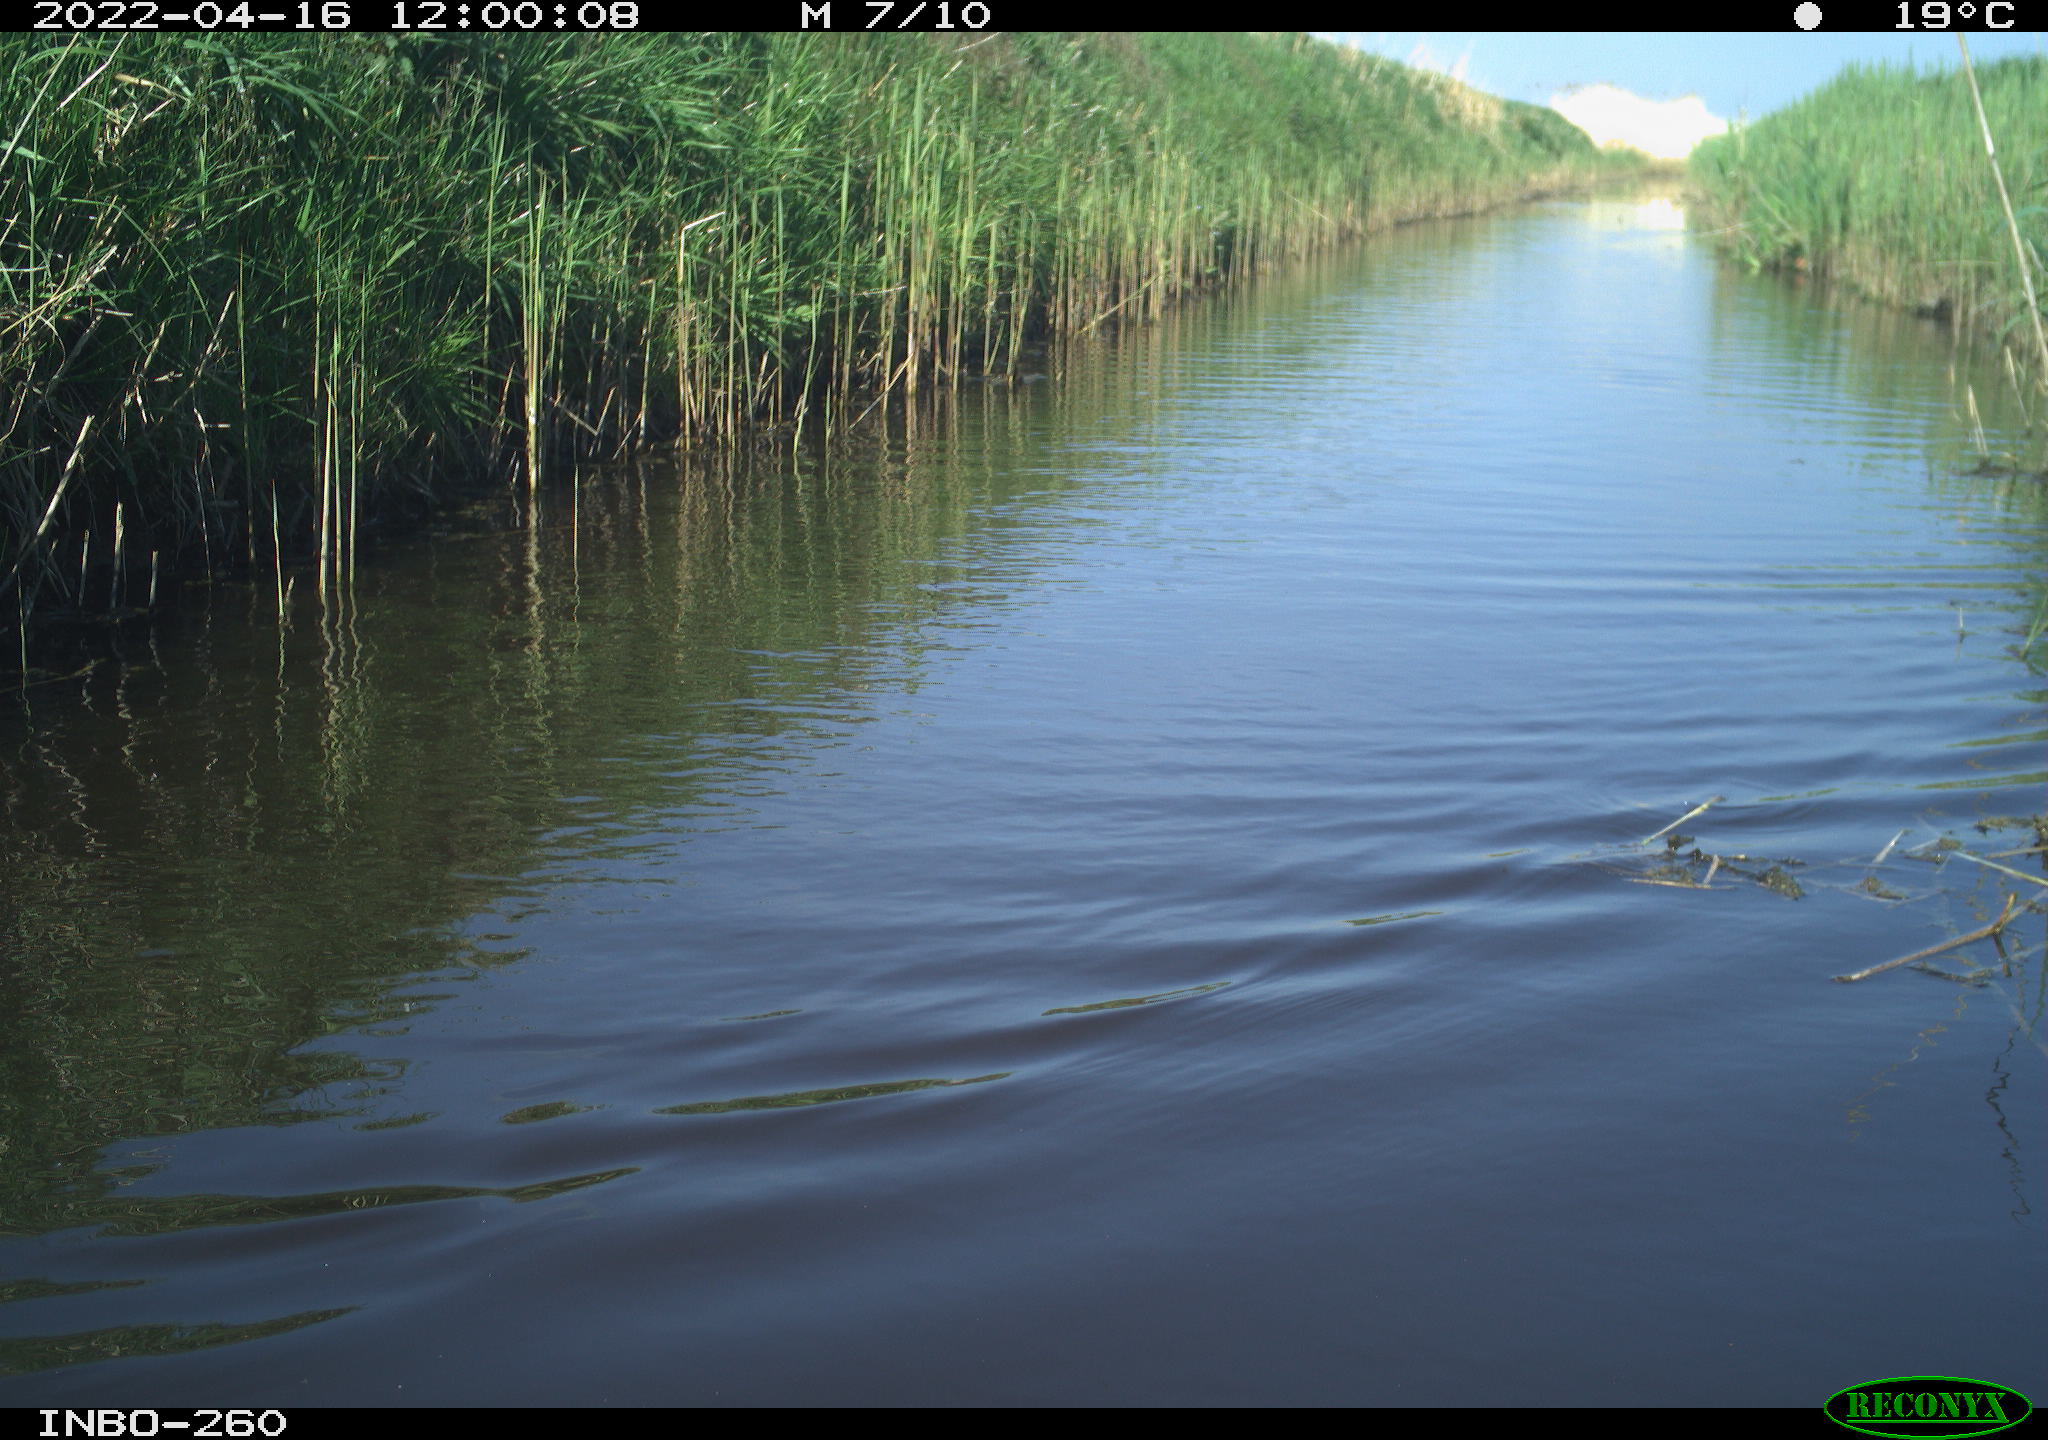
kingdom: Animalia
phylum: Chordata
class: Aves
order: Gruiformes
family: Rallidae
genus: Fulica
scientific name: Fulica atra
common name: Eurasian coot
